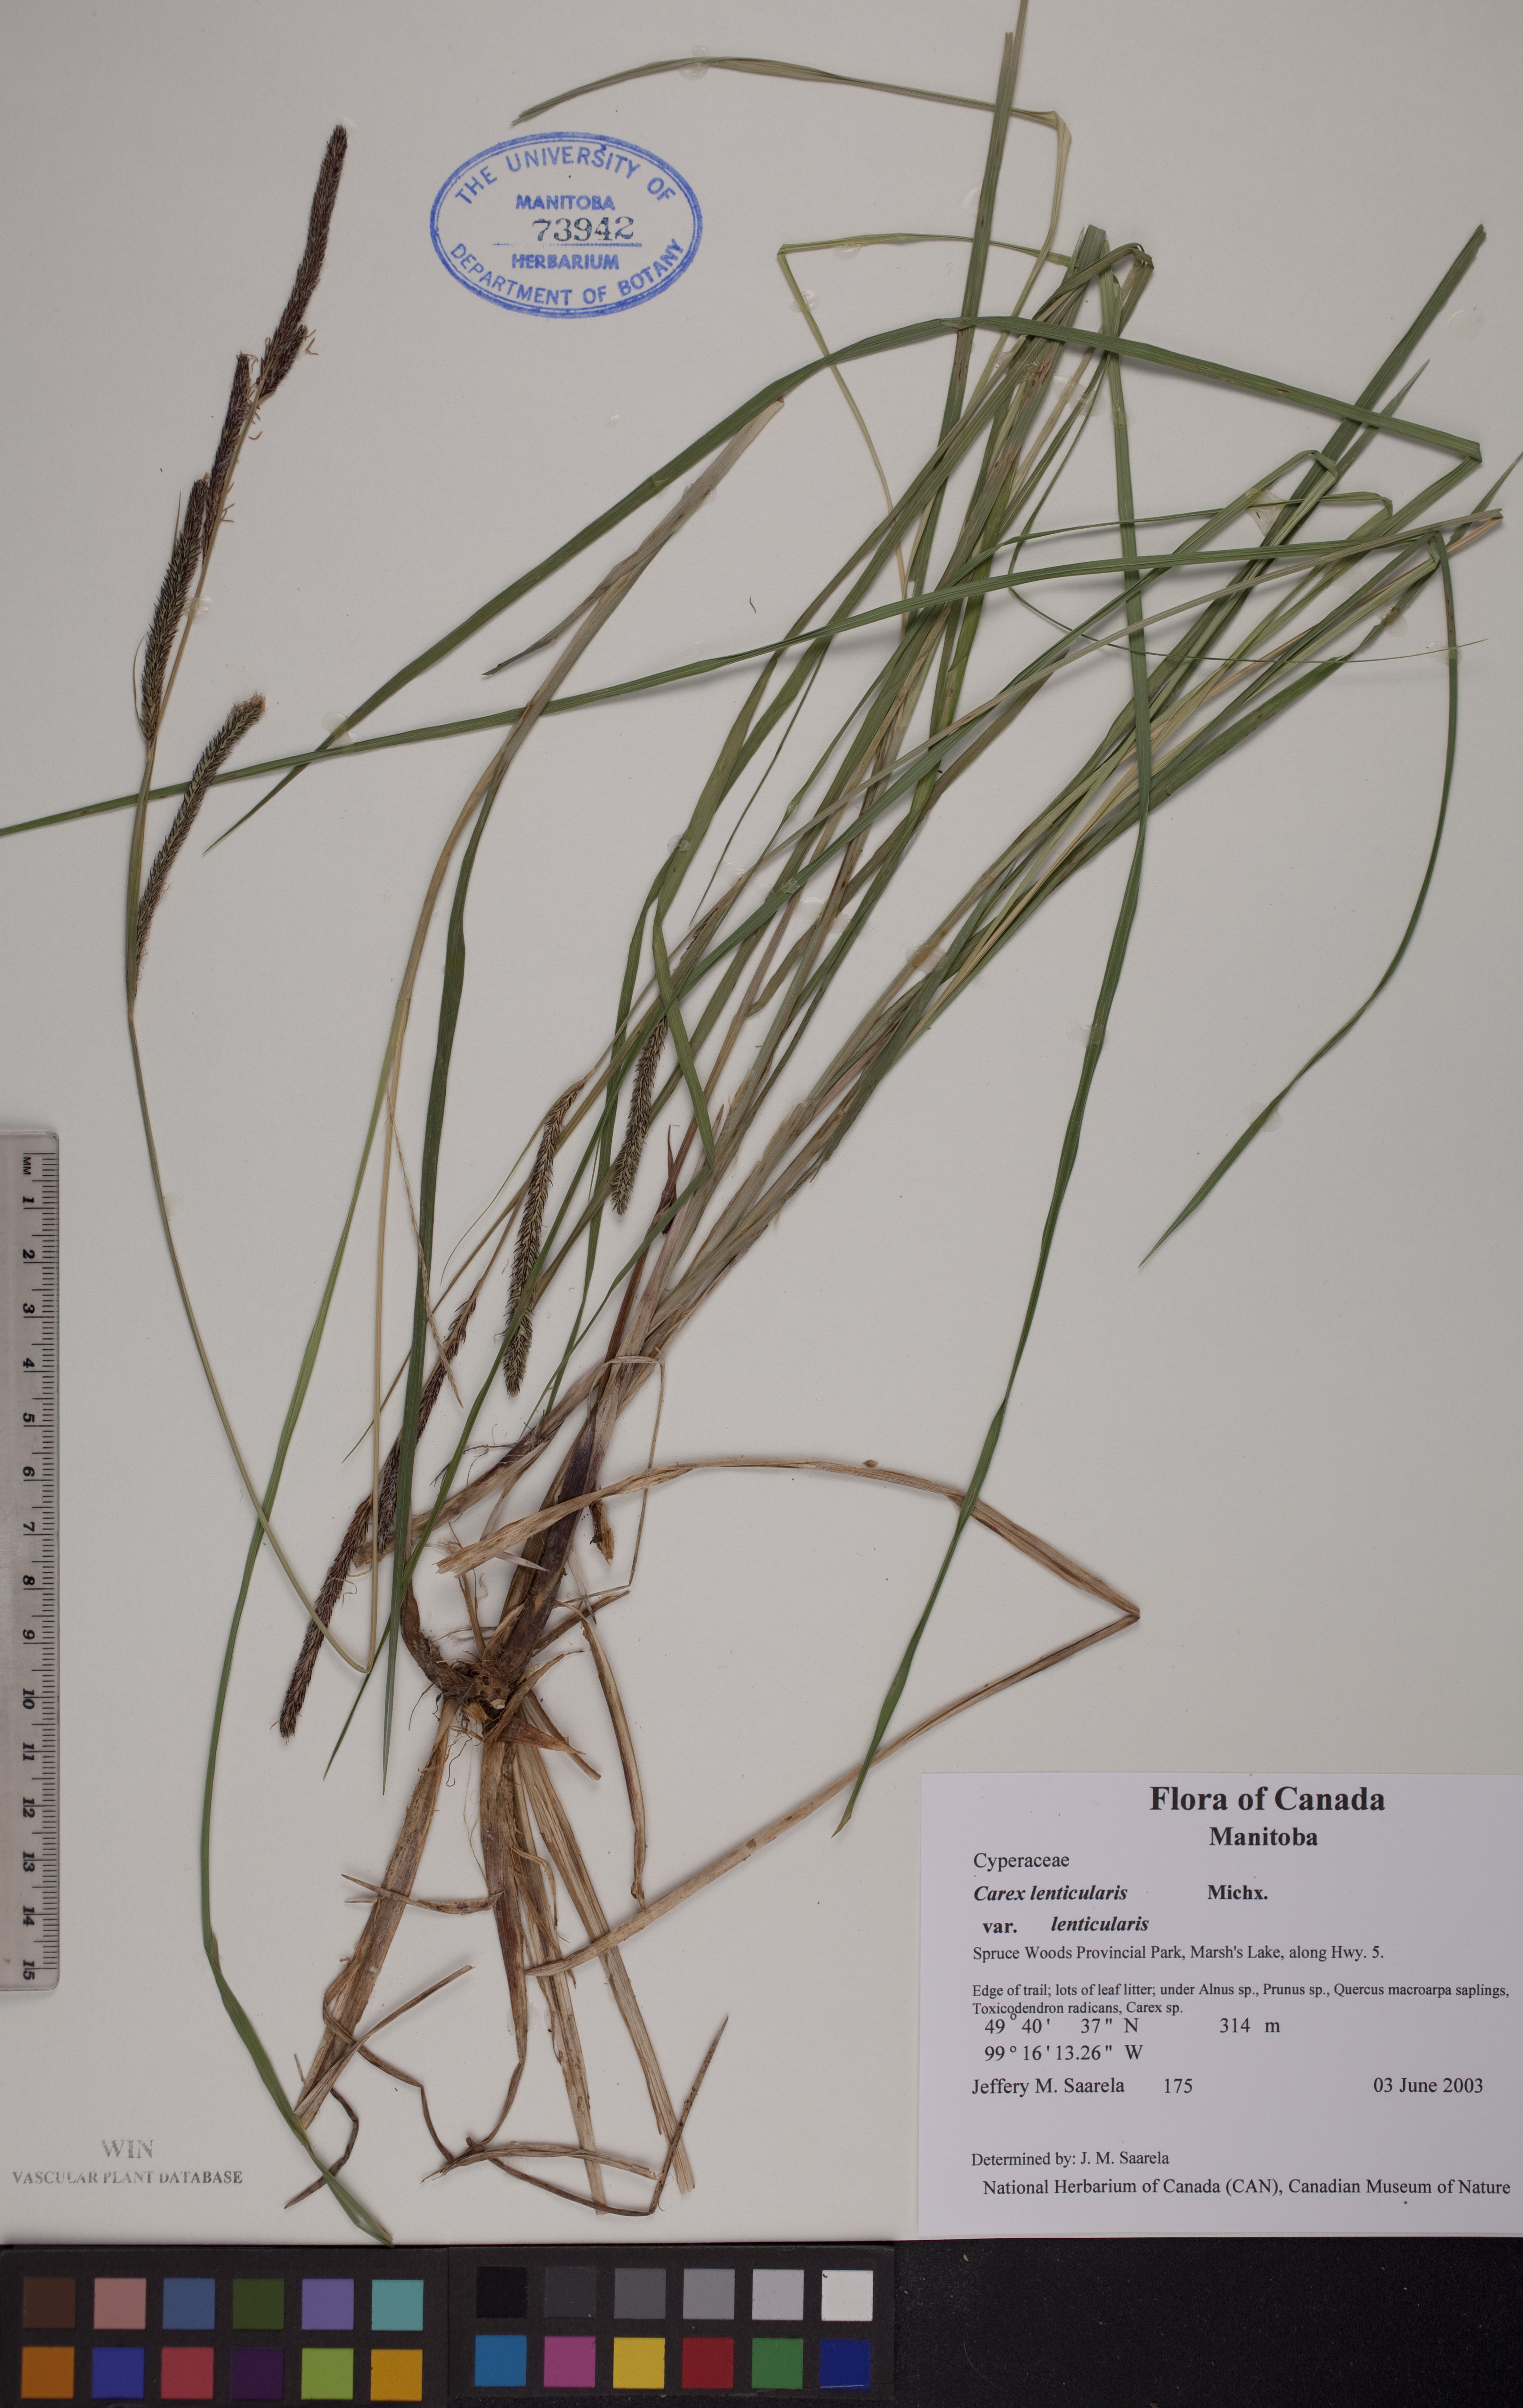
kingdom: Plantae
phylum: Tracheophyta
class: Liliopsida
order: Poales
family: Cyperaceae
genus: Carex
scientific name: Carex lenticularis
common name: Lakeshore sedge
